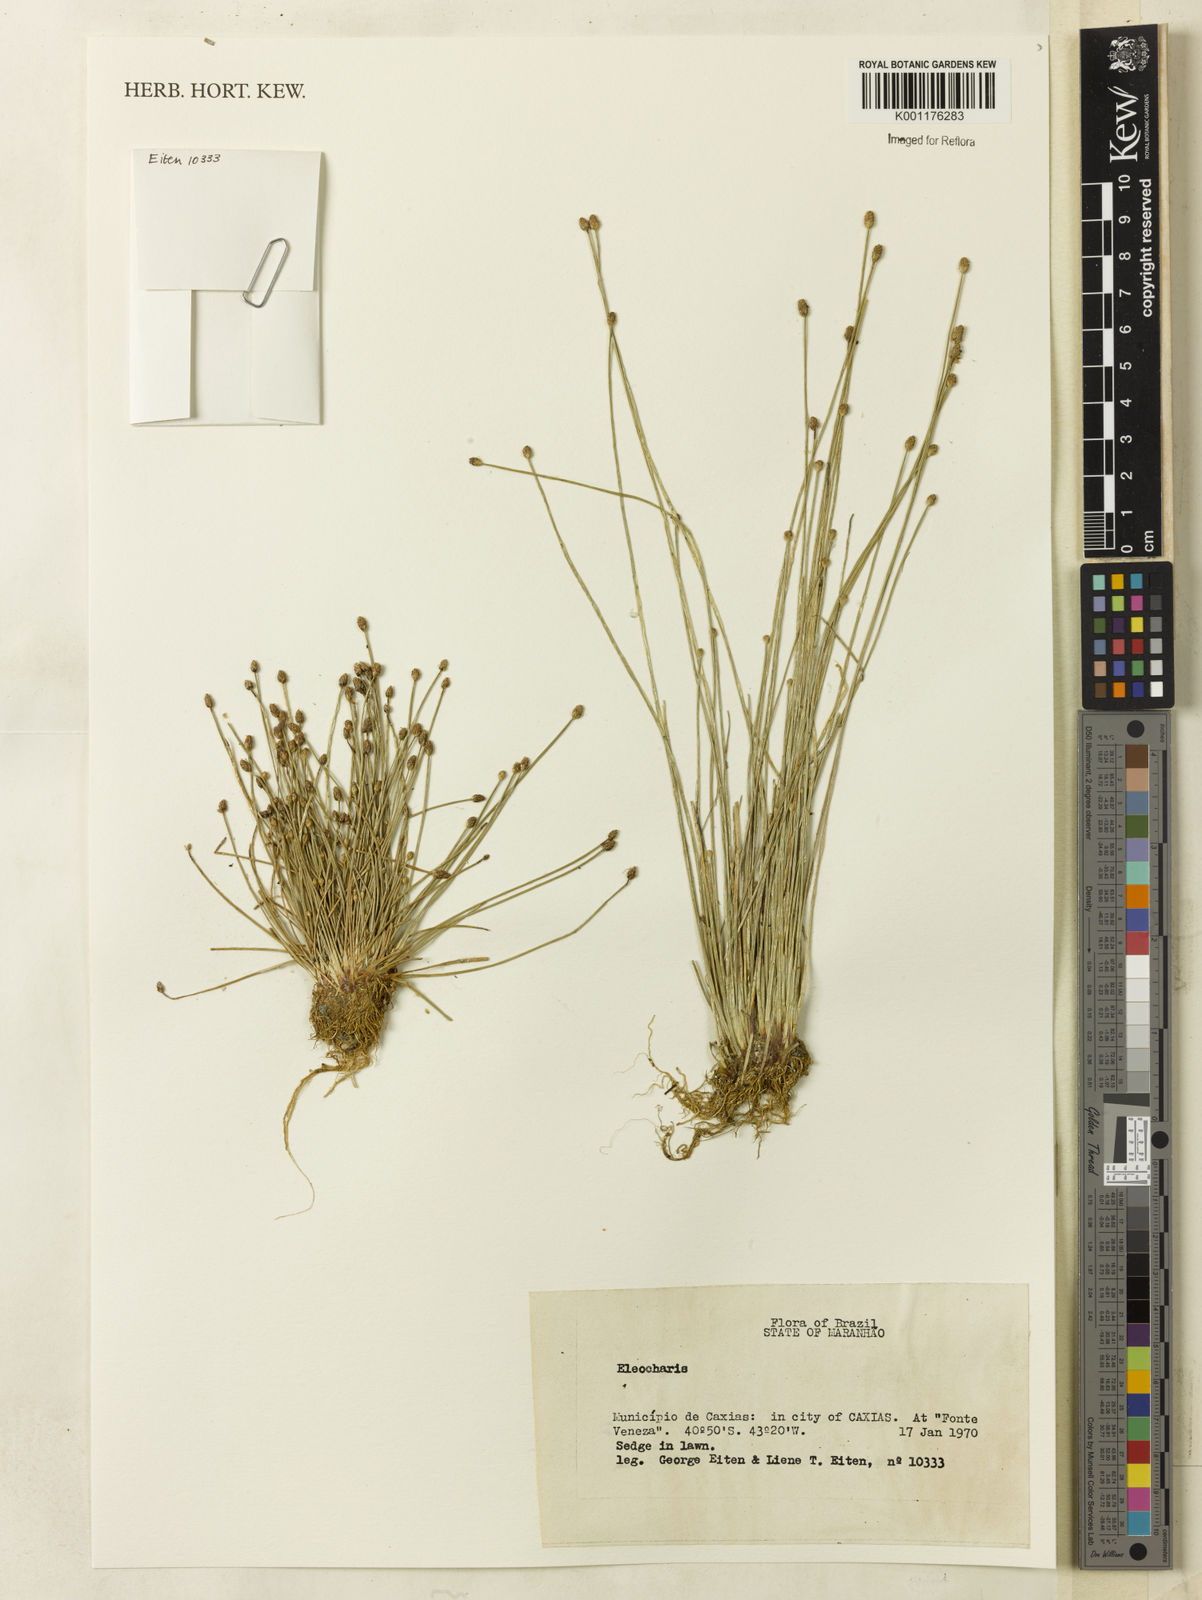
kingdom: Plantae
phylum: Tracheophyta
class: Liliopsida
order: Poales
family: Cyperaceae
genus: Eleocharis
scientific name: Eleocharis
